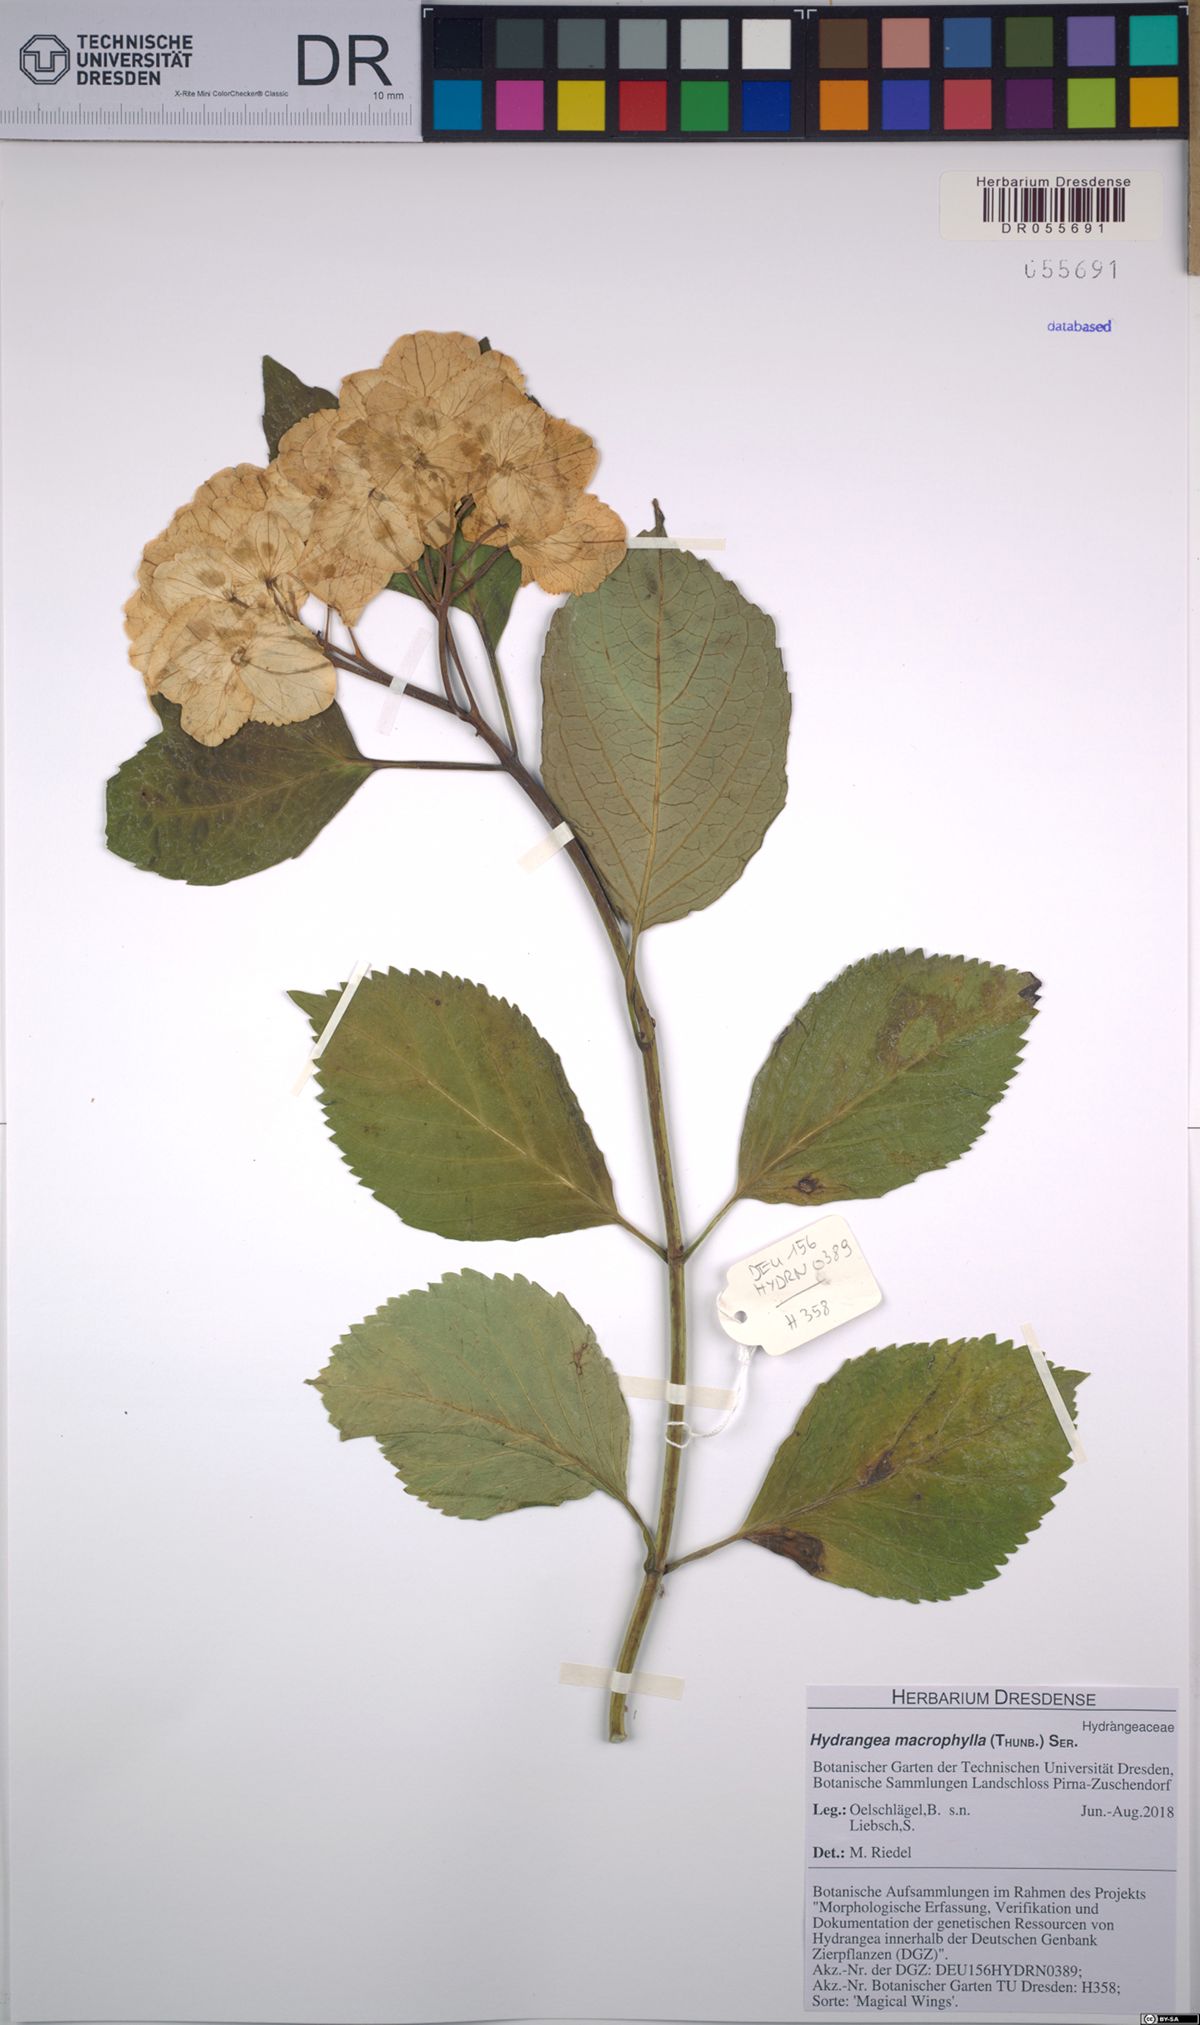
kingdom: Plantae
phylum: Tracheophyta
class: Magnoliopsida
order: Cornales
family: Hydrangeaceae
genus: Hydrangea
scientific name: Hydrangea macrophylla
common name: Hydrangea
